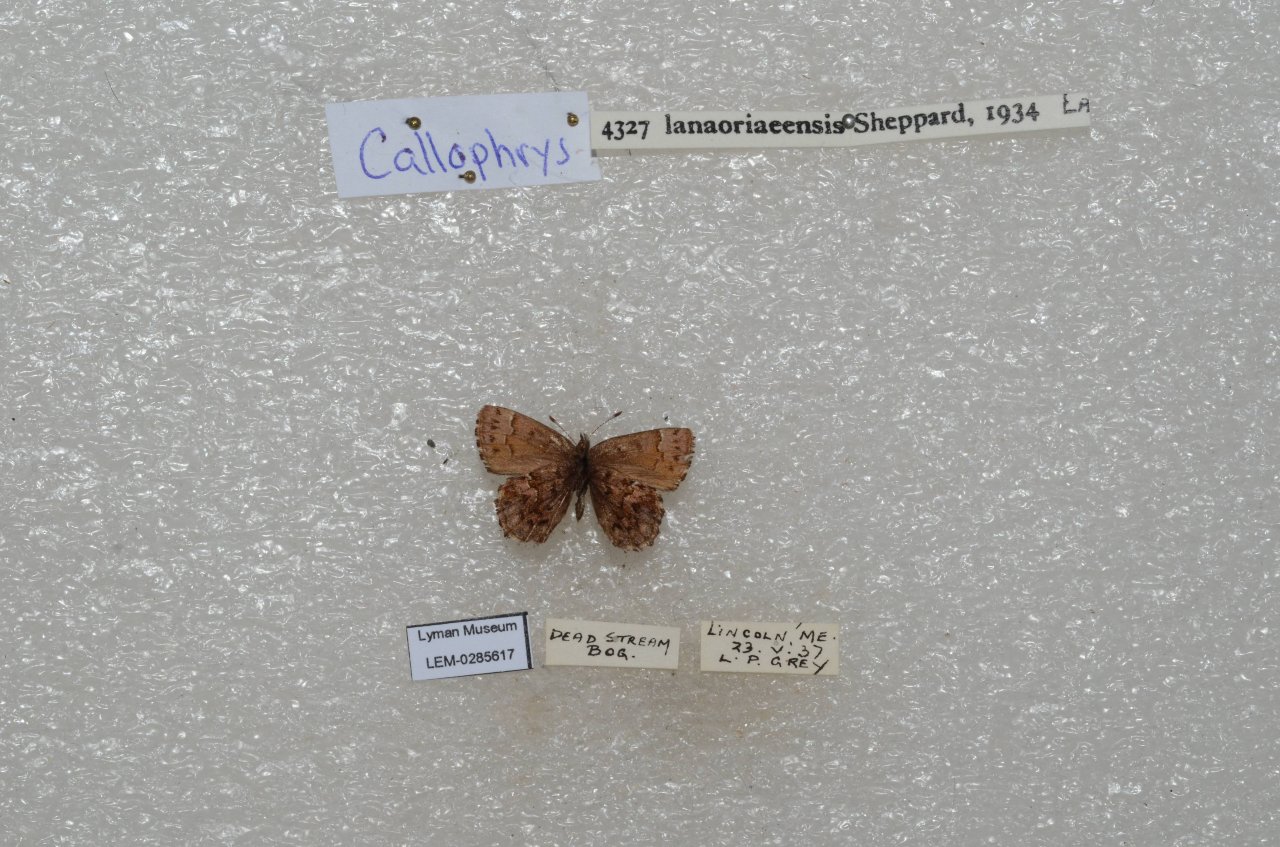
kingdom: Animalia
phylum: Arthropoda
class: Insecta
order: Lepidoptera
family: Lycaenidae
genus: Incisalia
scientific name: Incisalia lanoraieensis
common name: Bog Elfin
